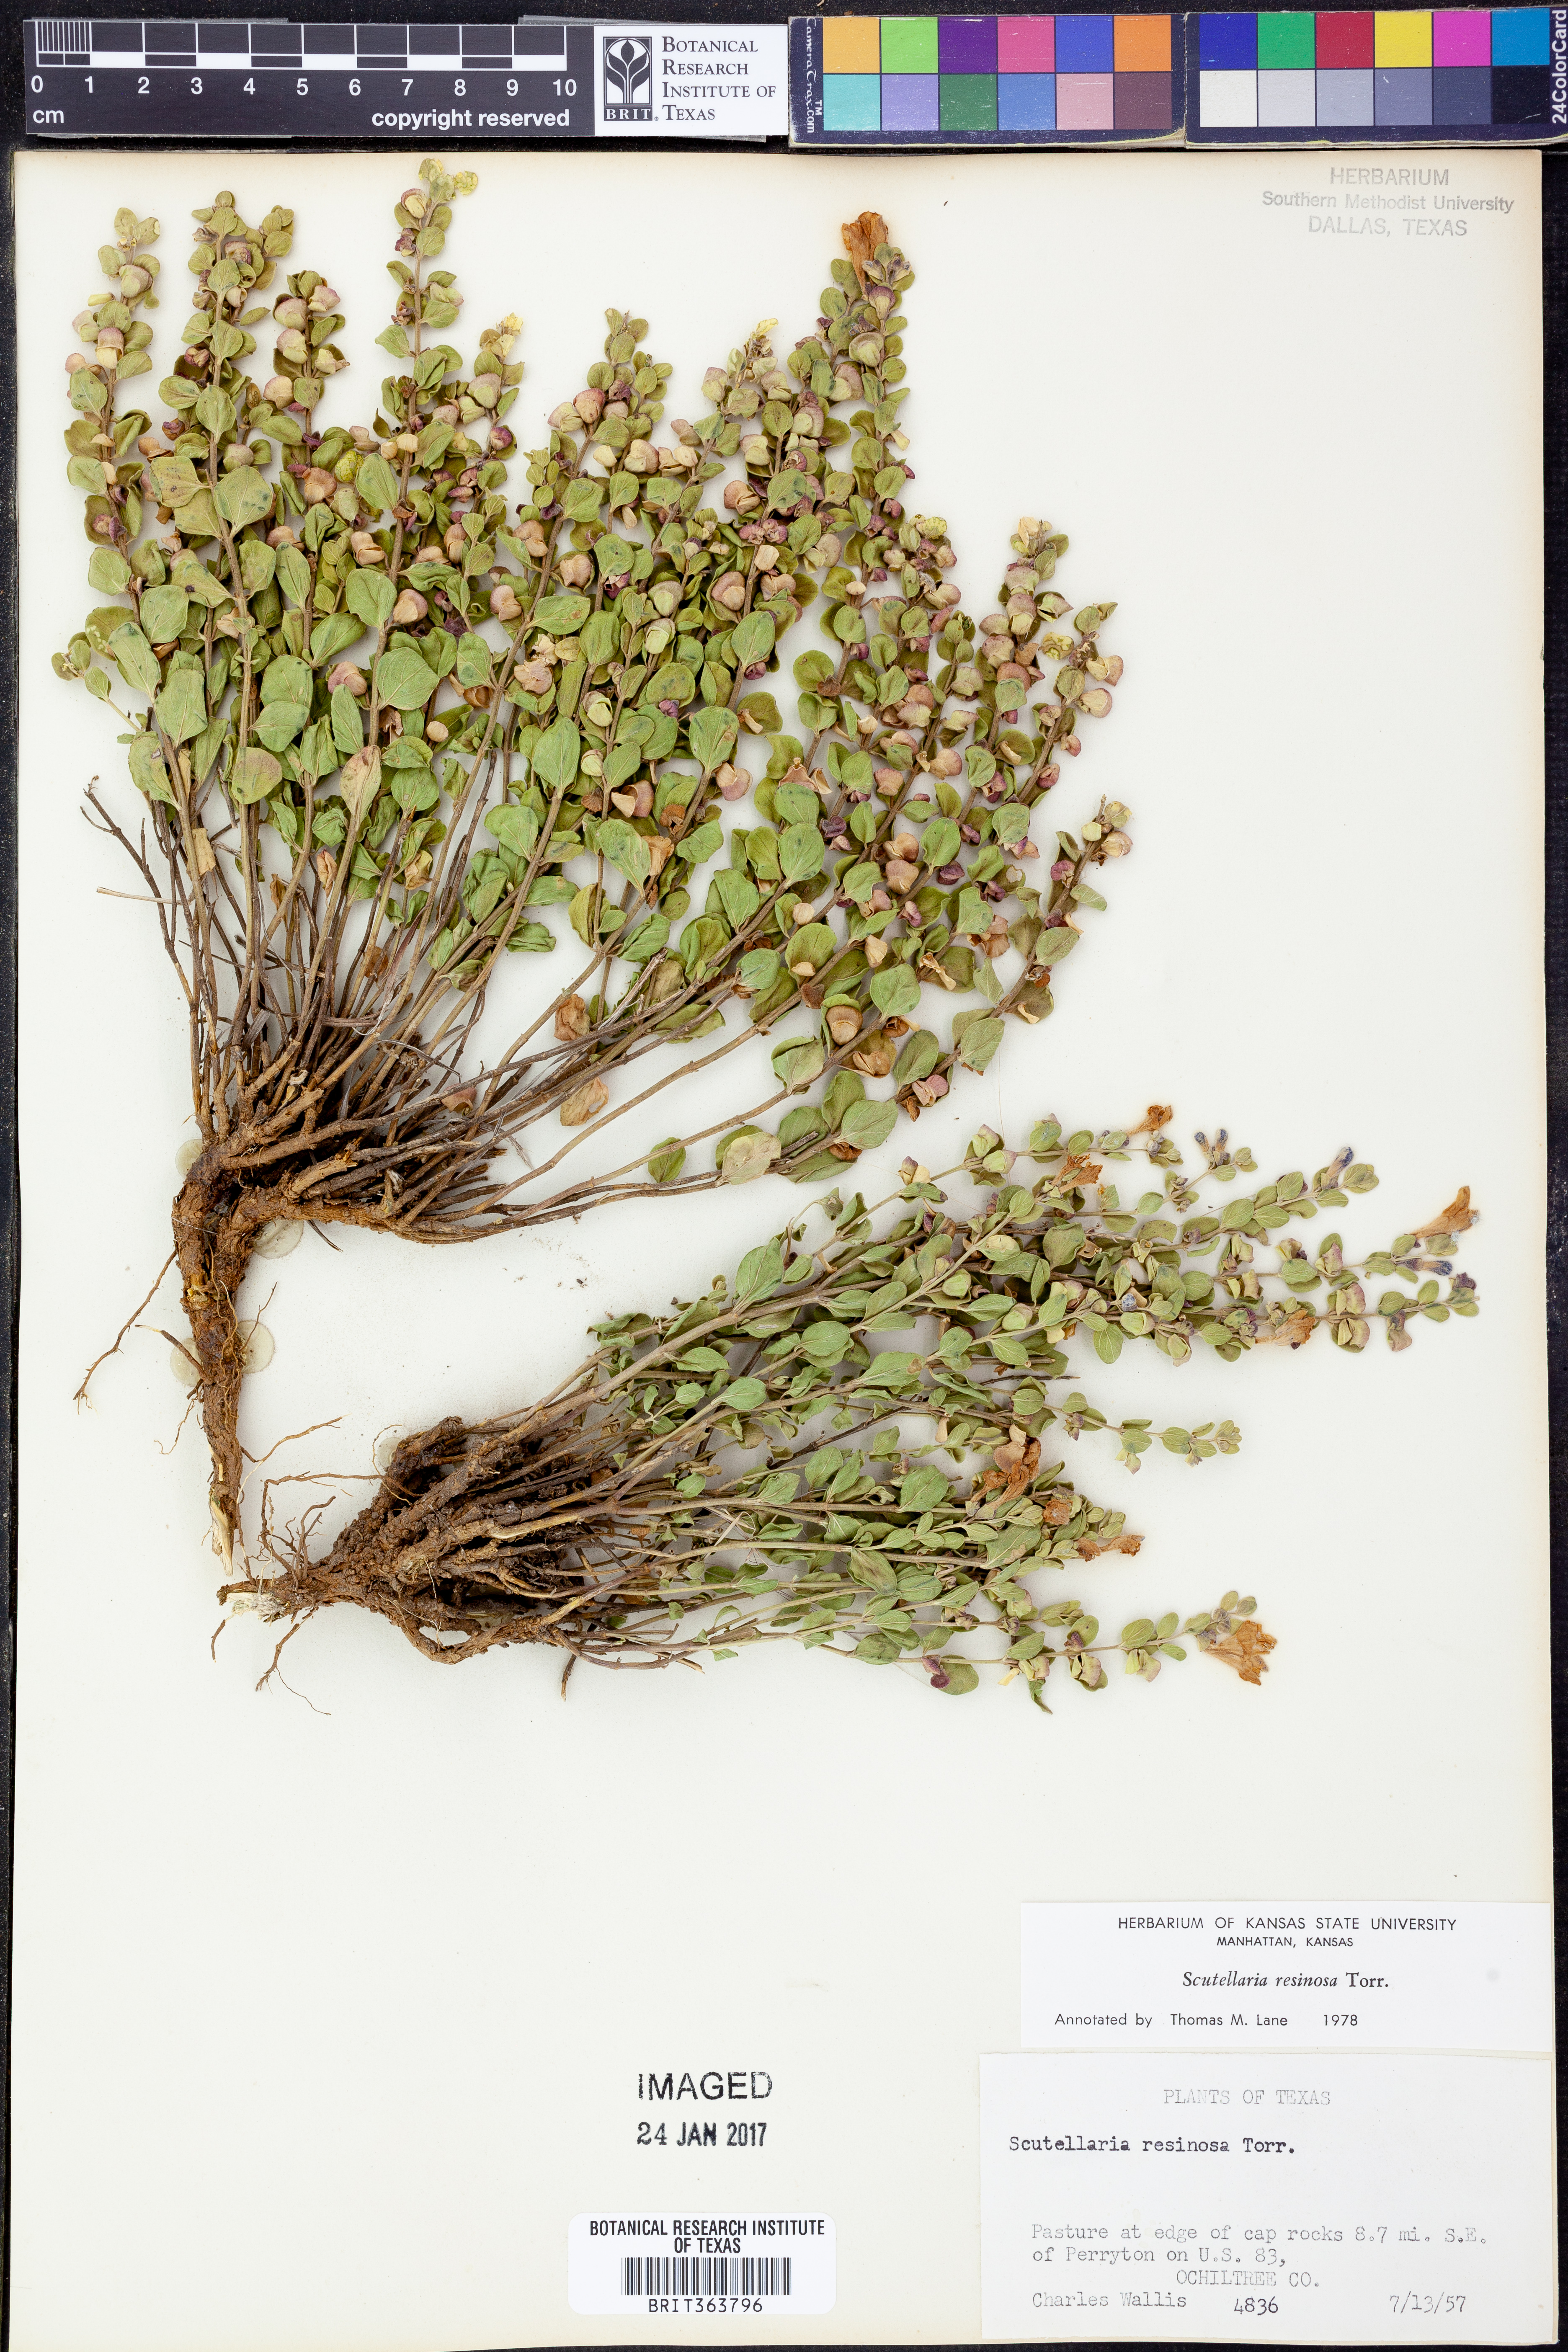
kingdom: Plantae
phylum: Tracheophyta
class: Magnoliopsida
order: Lamiales
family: Lamiaceae
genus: Scutellaria
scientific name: Scutellaria resinosa
